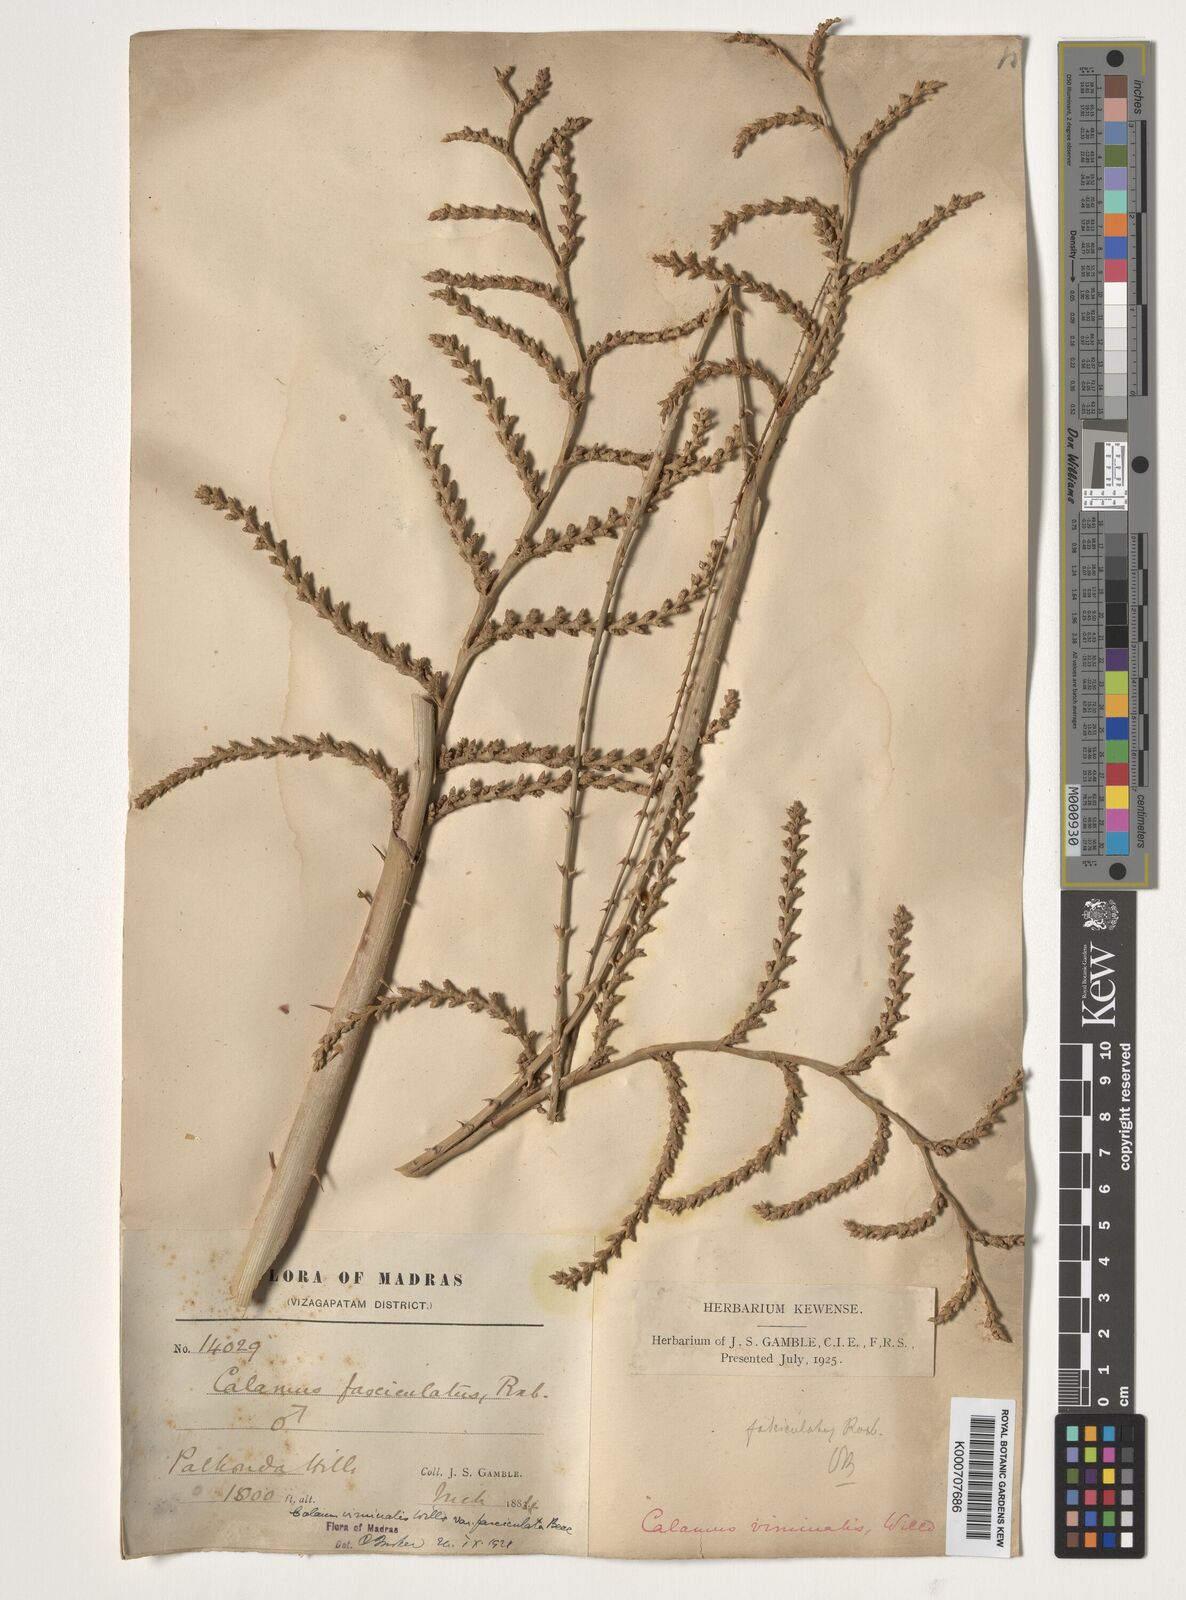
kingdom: Plantae
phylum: Tracheophyta
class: Liliopsida
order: Arecales
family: Arecaceae
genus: Calamus
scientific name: Calamus viminalis
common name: Osier-like rattan palm
